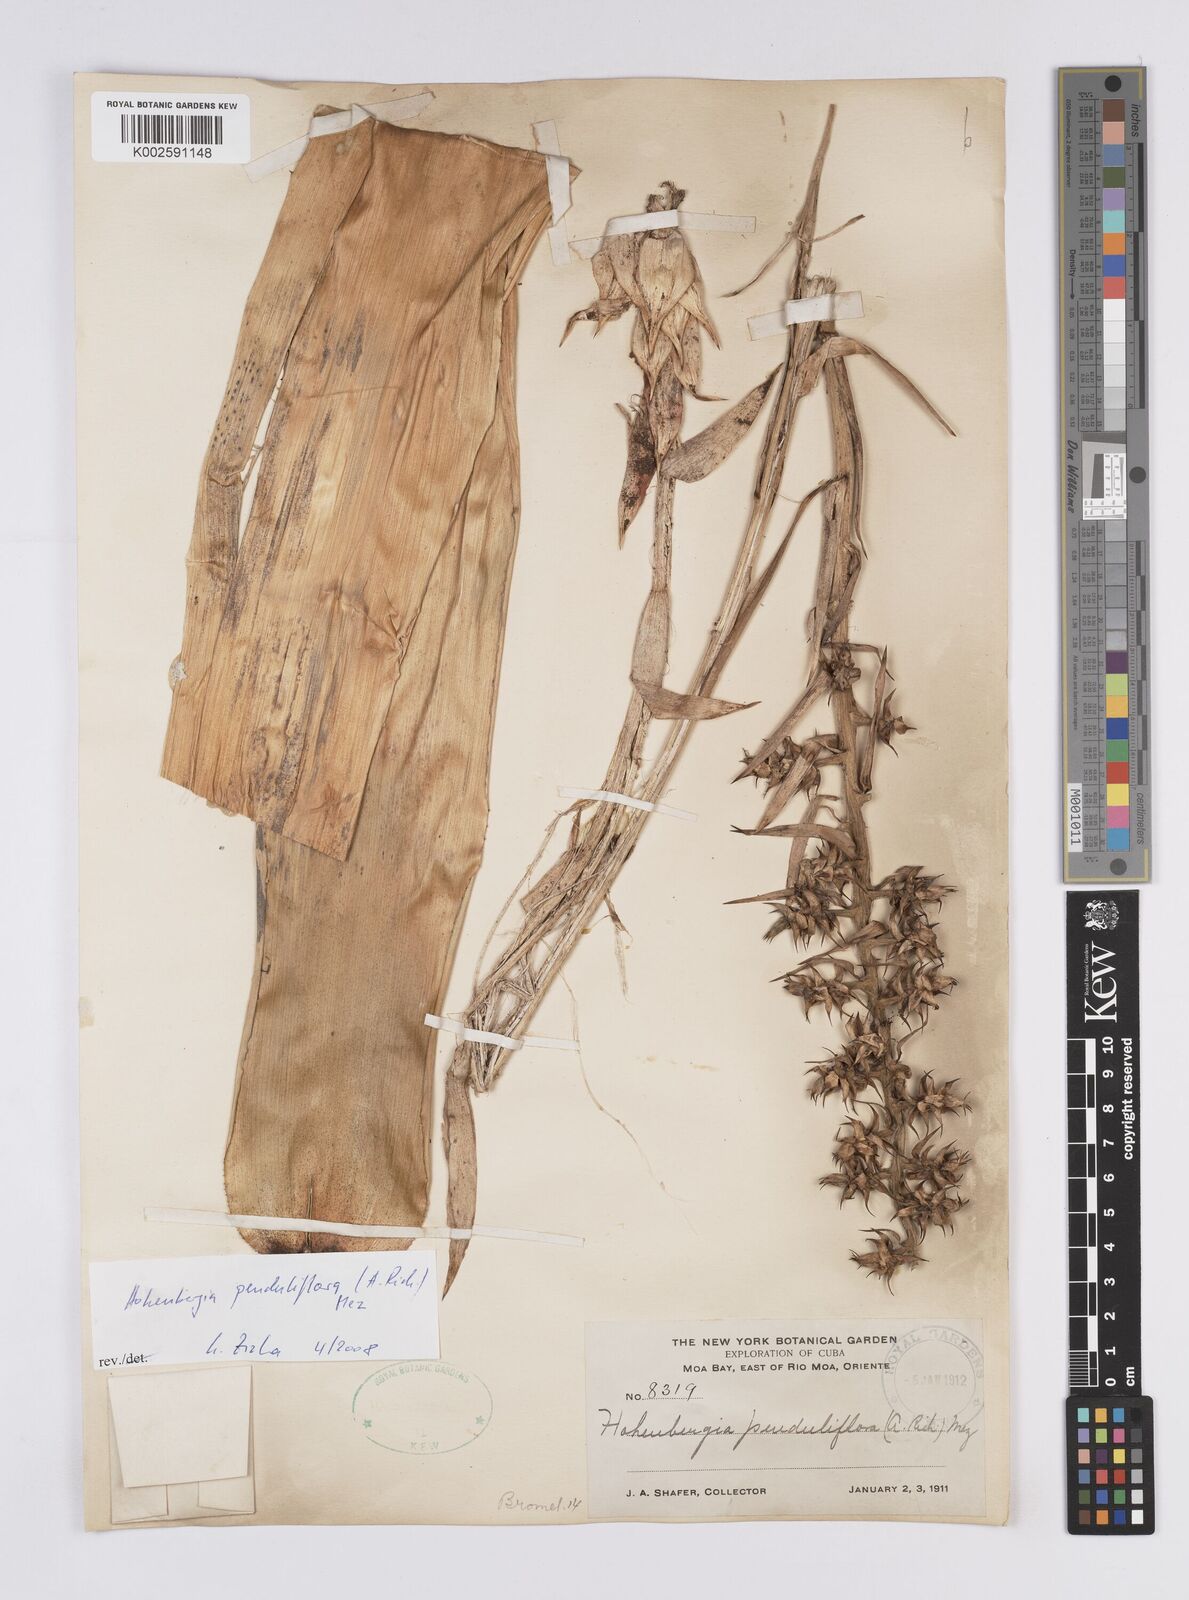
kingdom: Plantae
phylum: Tracheophyta
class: Liliopsida
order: Poales
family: Bromeliaceae
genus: Wittmackia
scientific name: Wittmackia penduliflora
